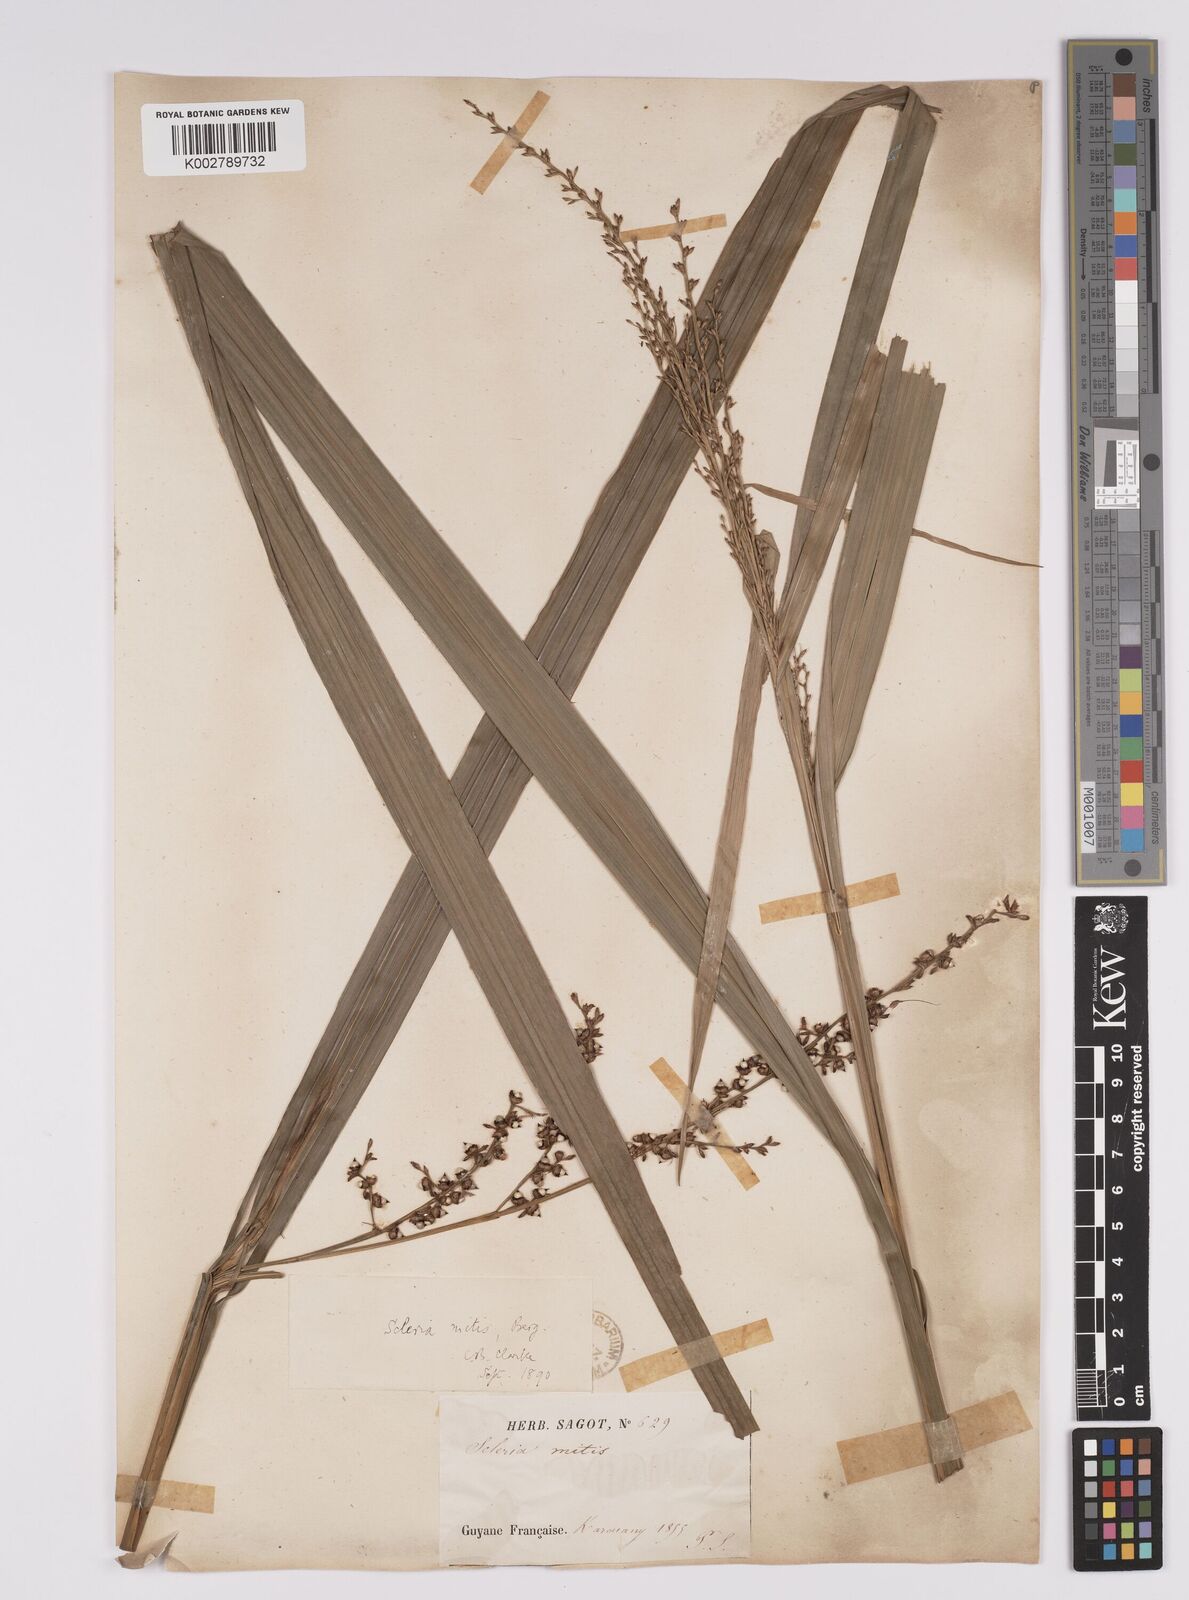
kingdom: Plantae
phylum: Tracheophyta
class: Liliopsida
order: Poales
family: Cyperaceae
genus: Scleria
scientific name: Scleria mitis
